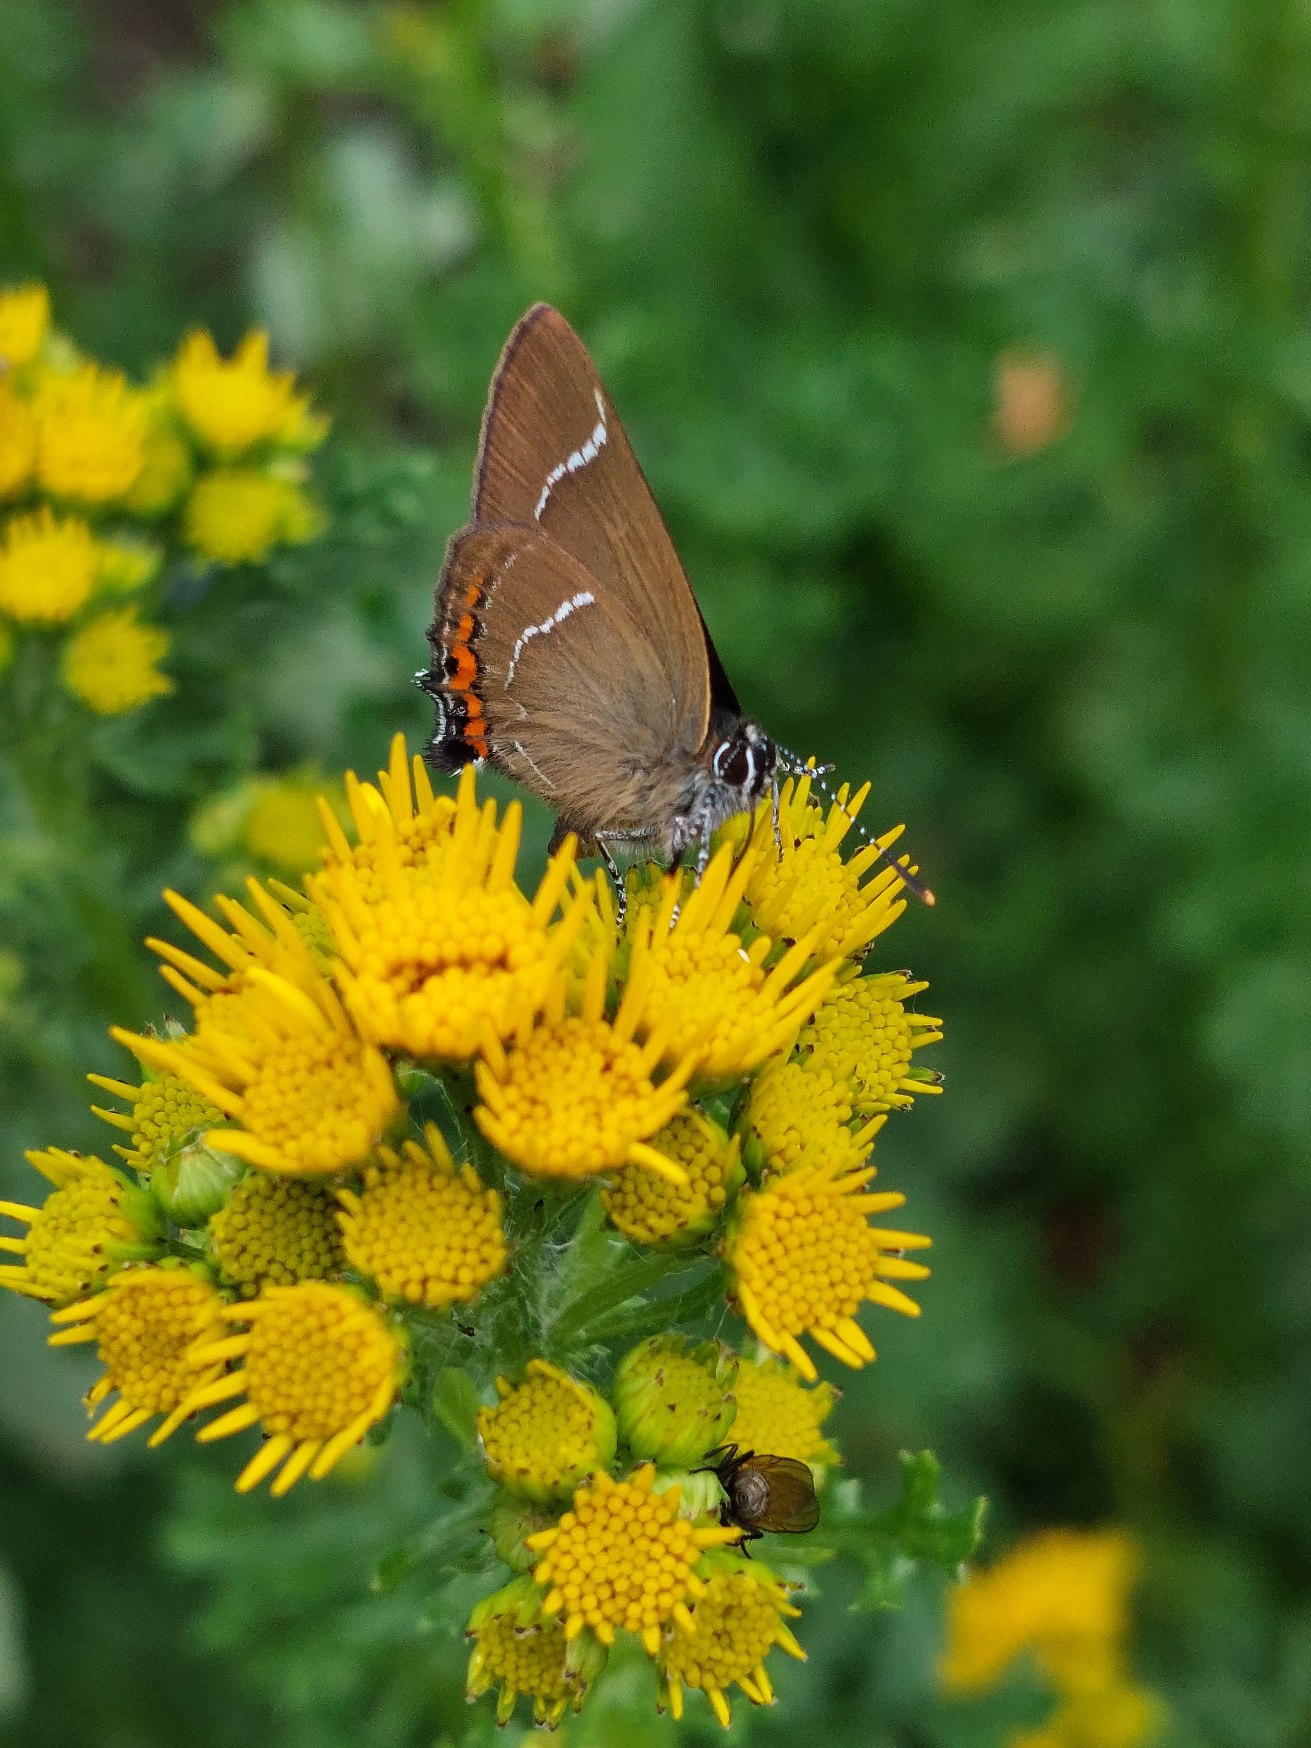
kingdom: Animalia
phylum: Arthropoda
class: Insecta
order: Lepidoptera
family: Lycaenidae
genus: Satyrium
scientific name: Satyrium w-album
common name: Det hvide W
